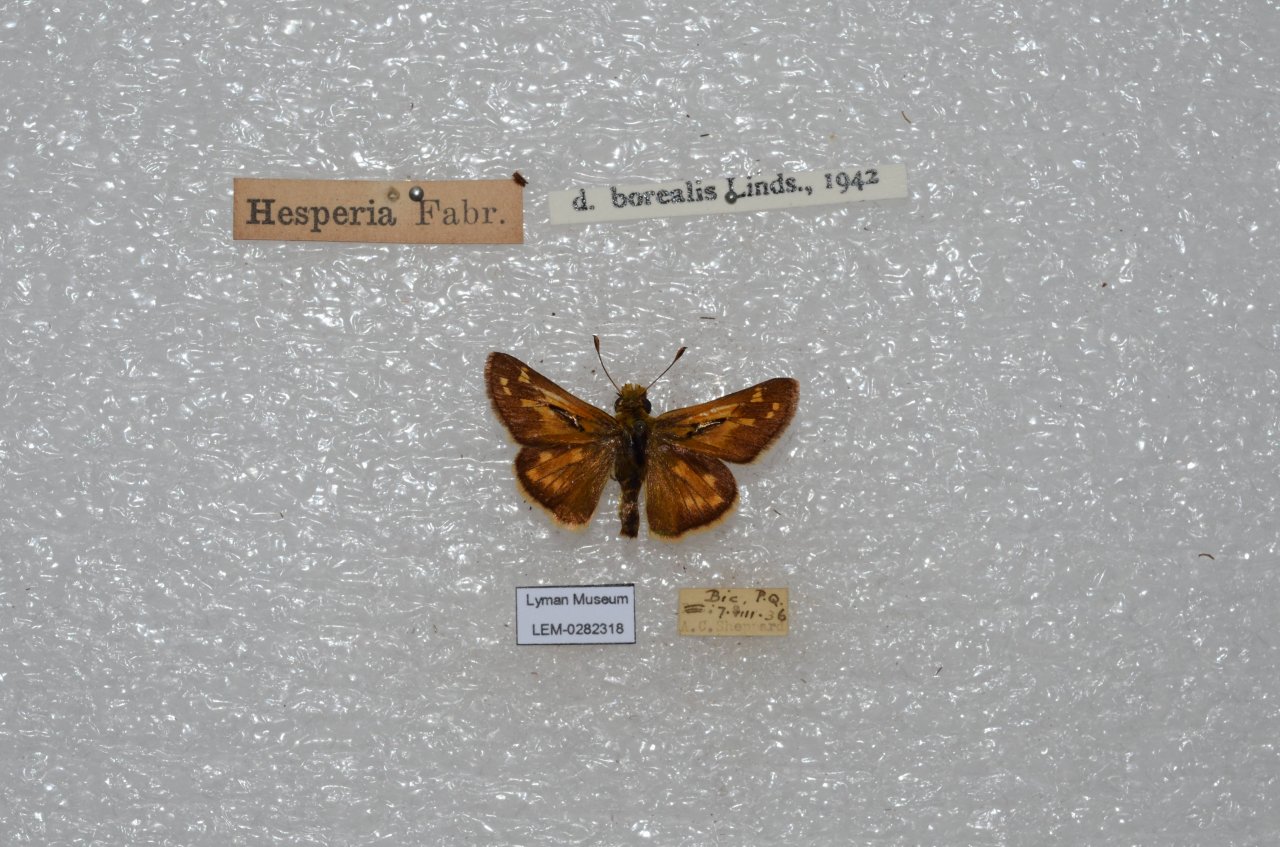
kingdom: Animalia
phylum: Arthropoda
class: Insecta
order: Lepidoptera
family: Hesperiidae
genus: Hesperia
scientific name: Hesperia comma
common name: Common Branded Skipper
